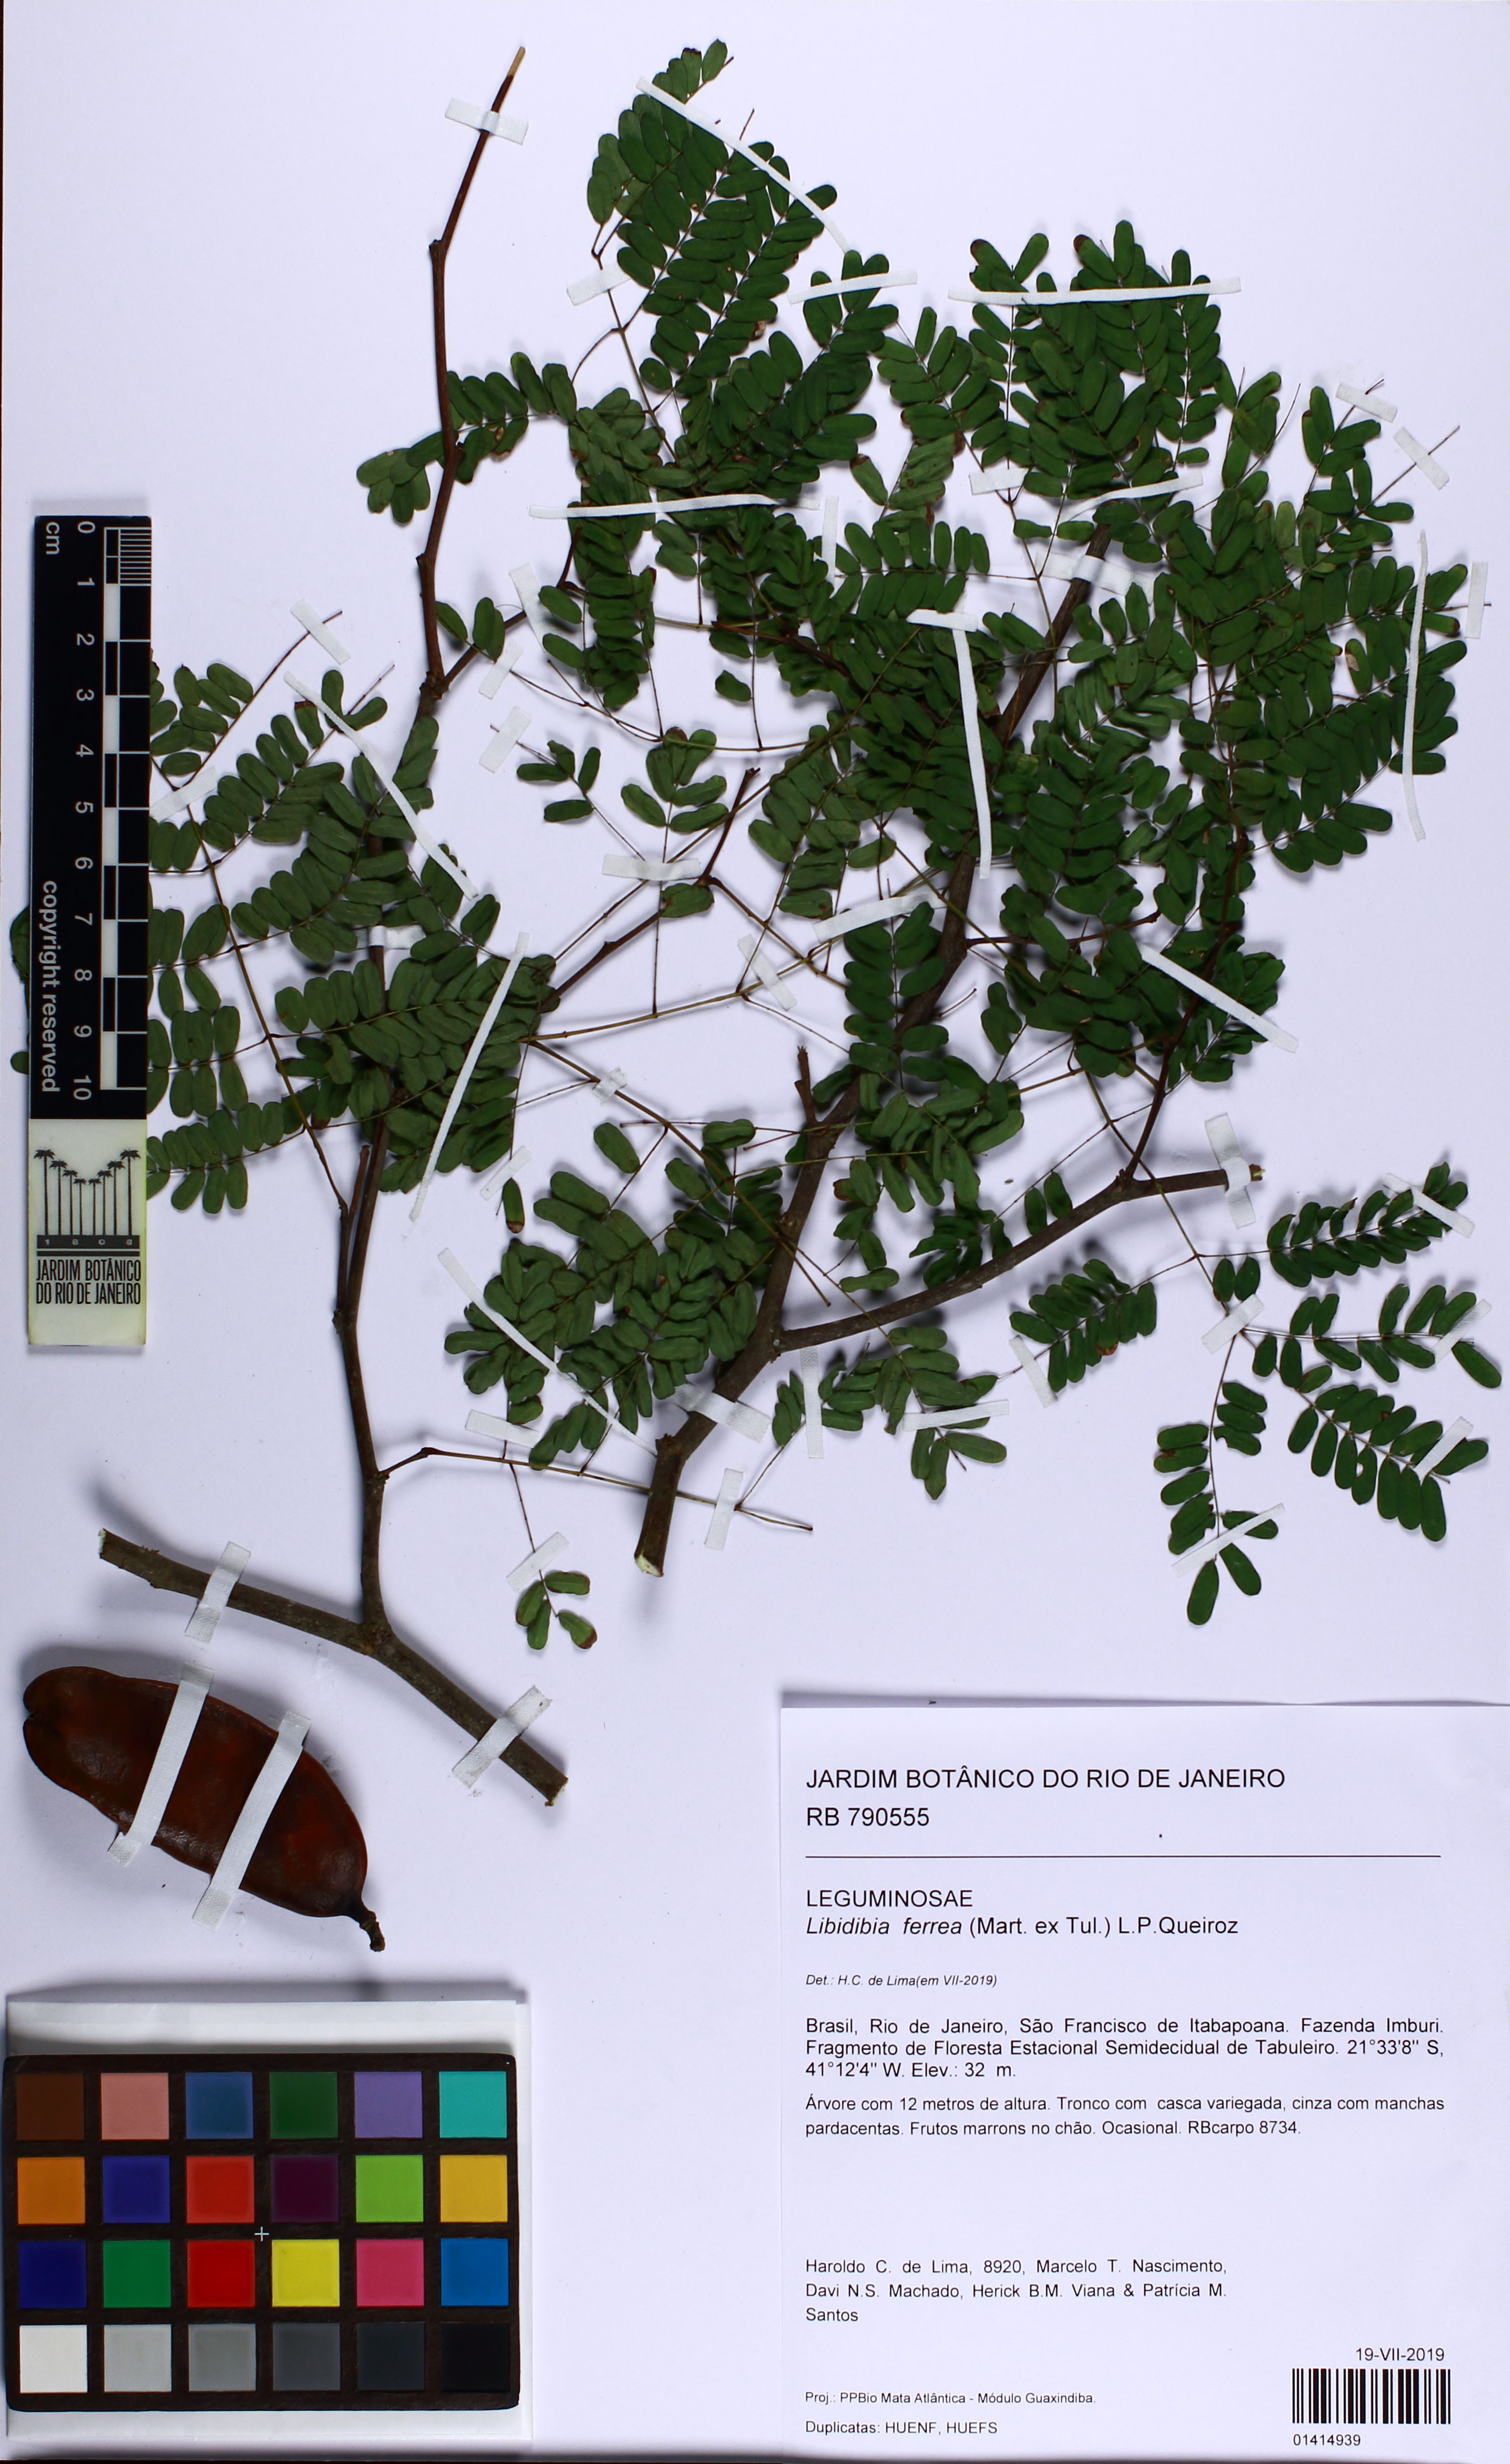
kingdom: Plantae
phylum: Tracheophyta
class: Magnoliopsida
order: Fabales
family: Fabaceae
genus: Libidibia
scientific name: Libidibia ferrea
